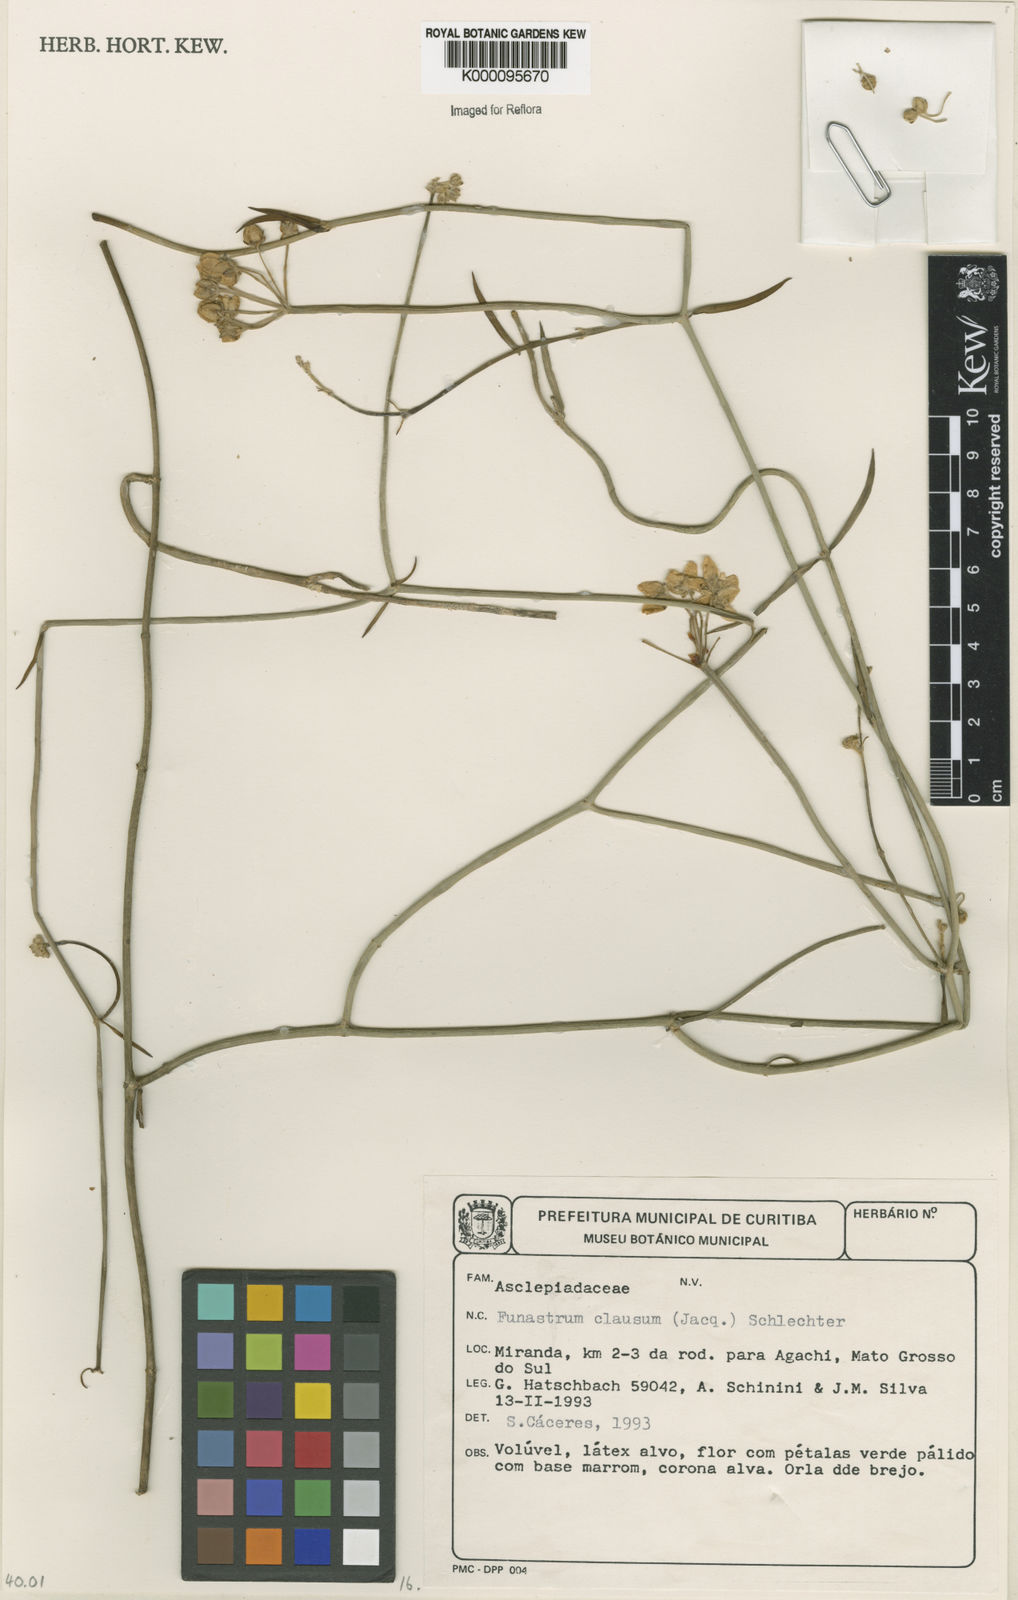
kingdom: Plantae
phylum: Tracheophyta
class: Magnoliopsida
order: Gentianales
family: Apocynaceae
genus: Funastrum
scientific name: Funastrum clausum
